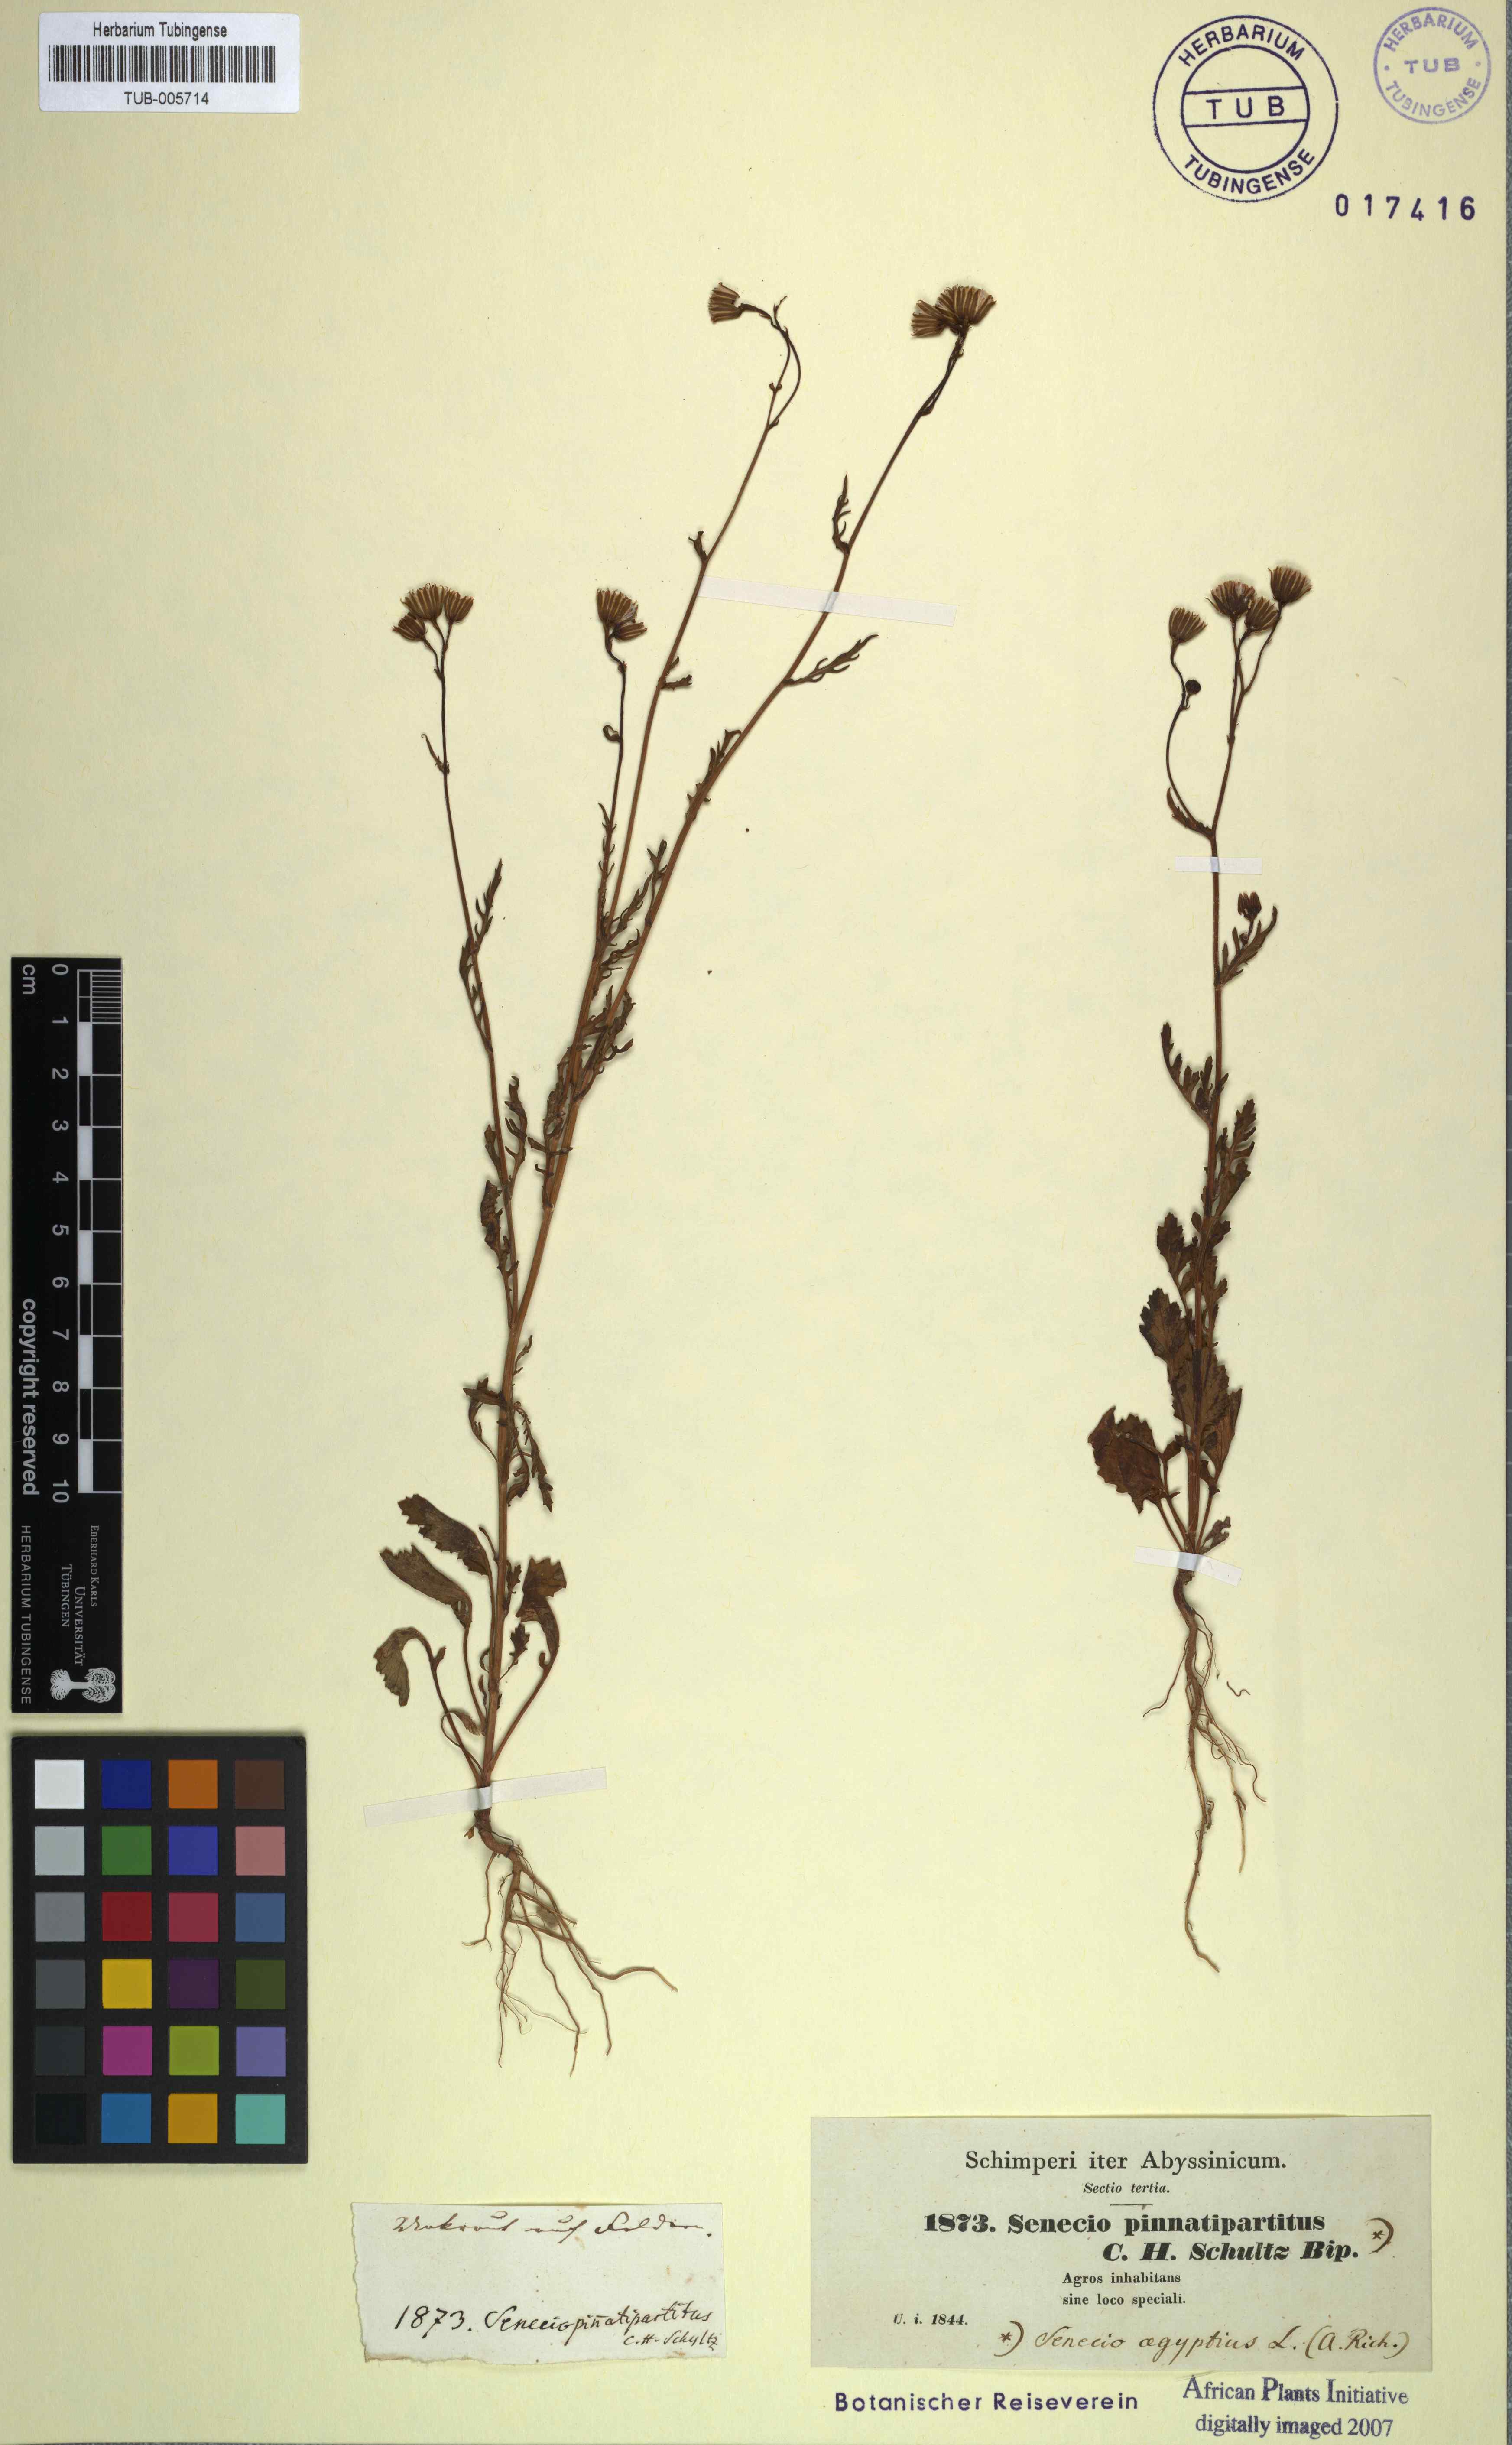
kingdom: Plantae
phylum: Tracheophyta
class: Magnoliopsida
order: Asterales
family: Asteraceae
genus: Senecio
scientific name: Senecio pinnatipartitus
